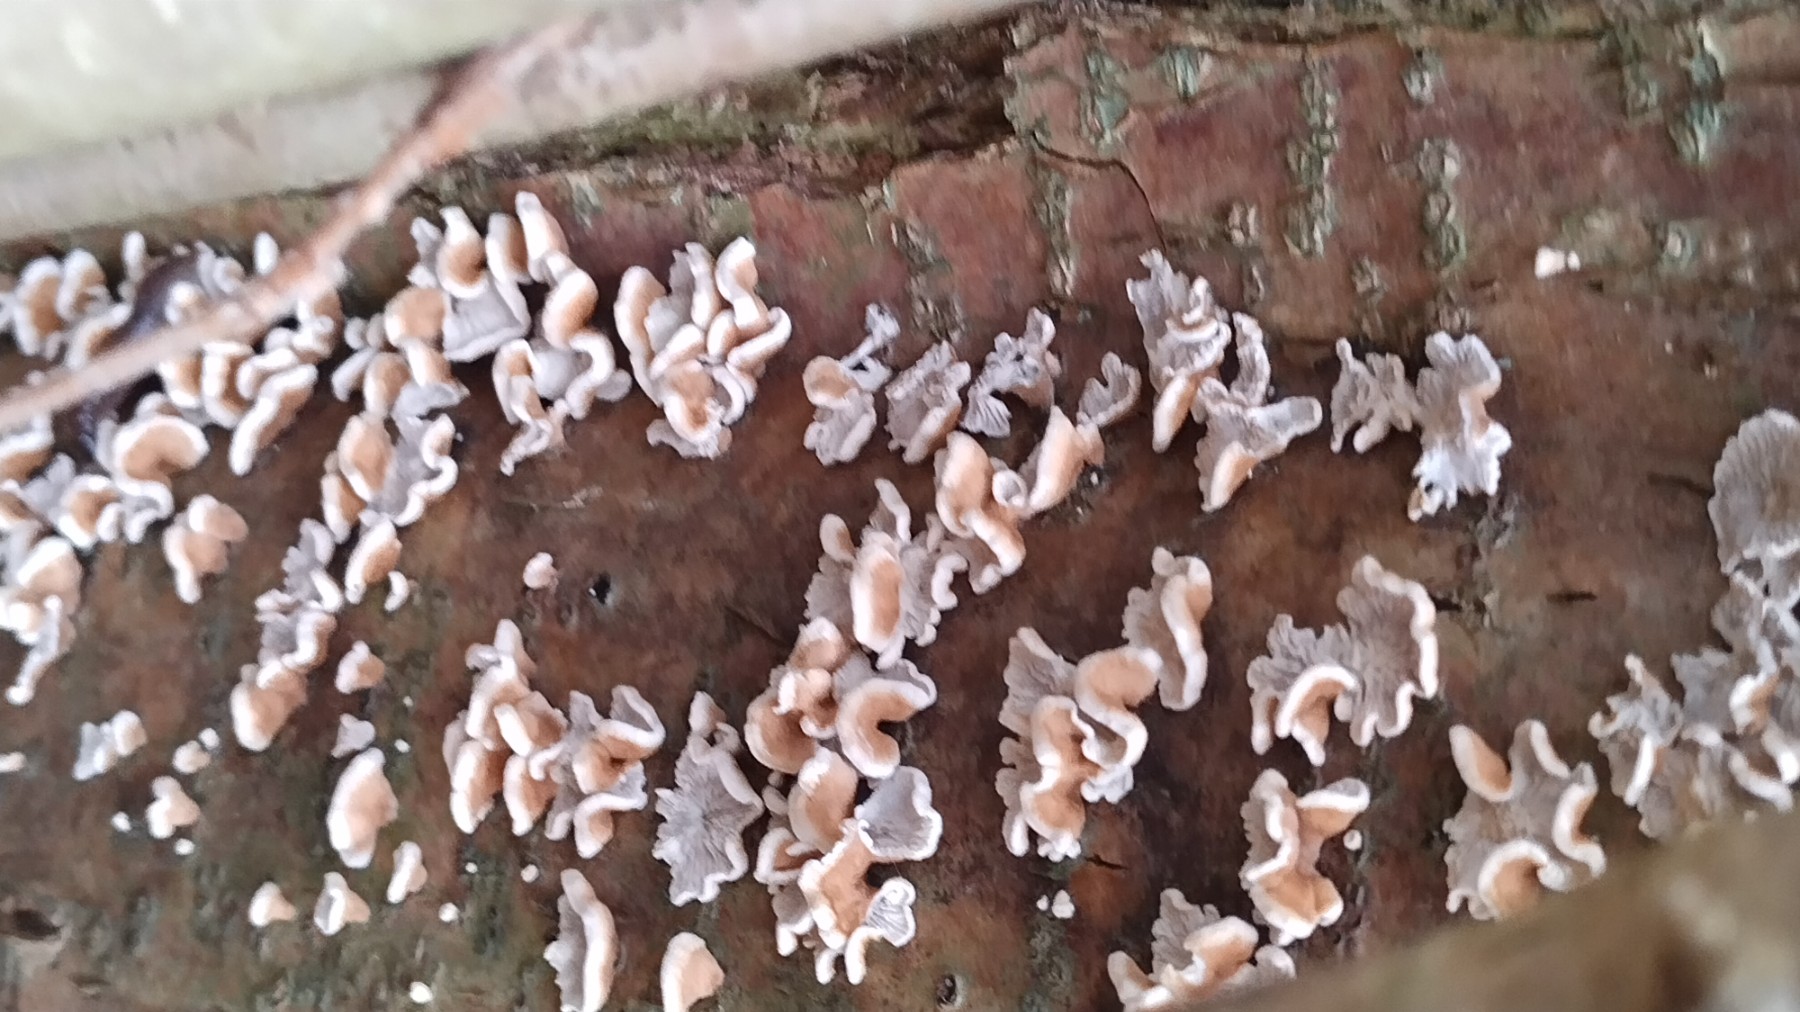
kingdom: Fungi
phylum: Basidiomycota
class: Agaricomycetes
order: Amylocorticiales
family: Amylocorticiaceae
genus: Plicaturopsis
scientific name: Plicaturopsis crispa
